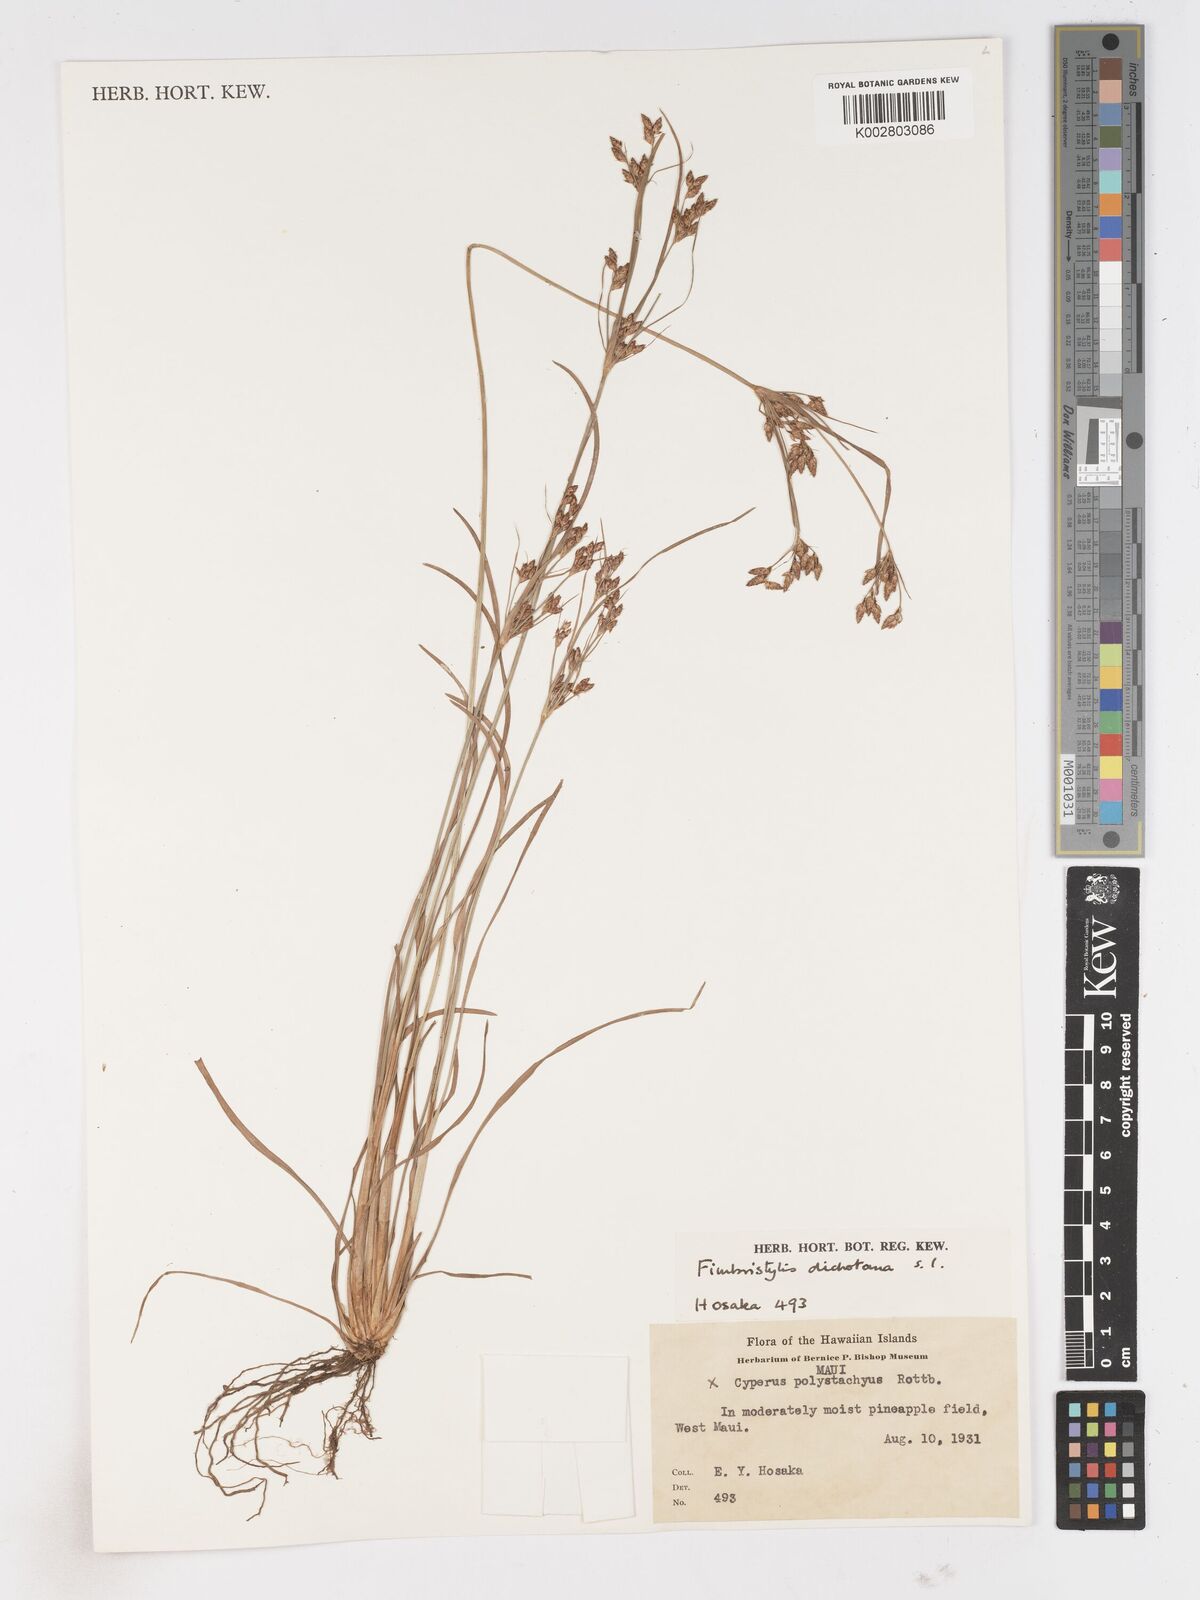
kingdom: Plantae
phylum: Tracheophyta
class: Liliopsida
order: Poales
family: Cyperaceae
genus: Fimbristylis
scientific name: Fimbristylis dichotoma
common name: Forked fimbry
